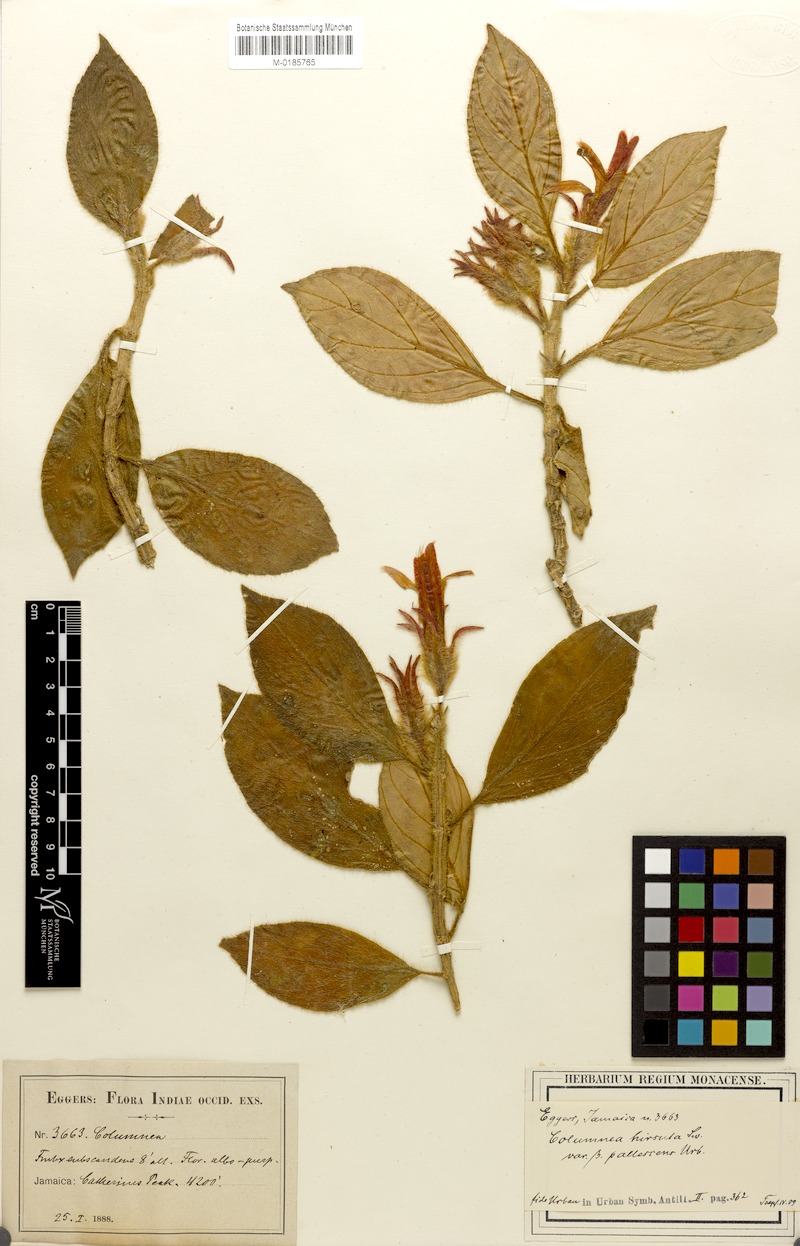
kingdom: Plantae
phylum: Tracheophyta
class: Magnoliopsida
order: Lamiales
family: Gesneriaceae
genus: Columnea
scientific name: Columnea hirsuta
